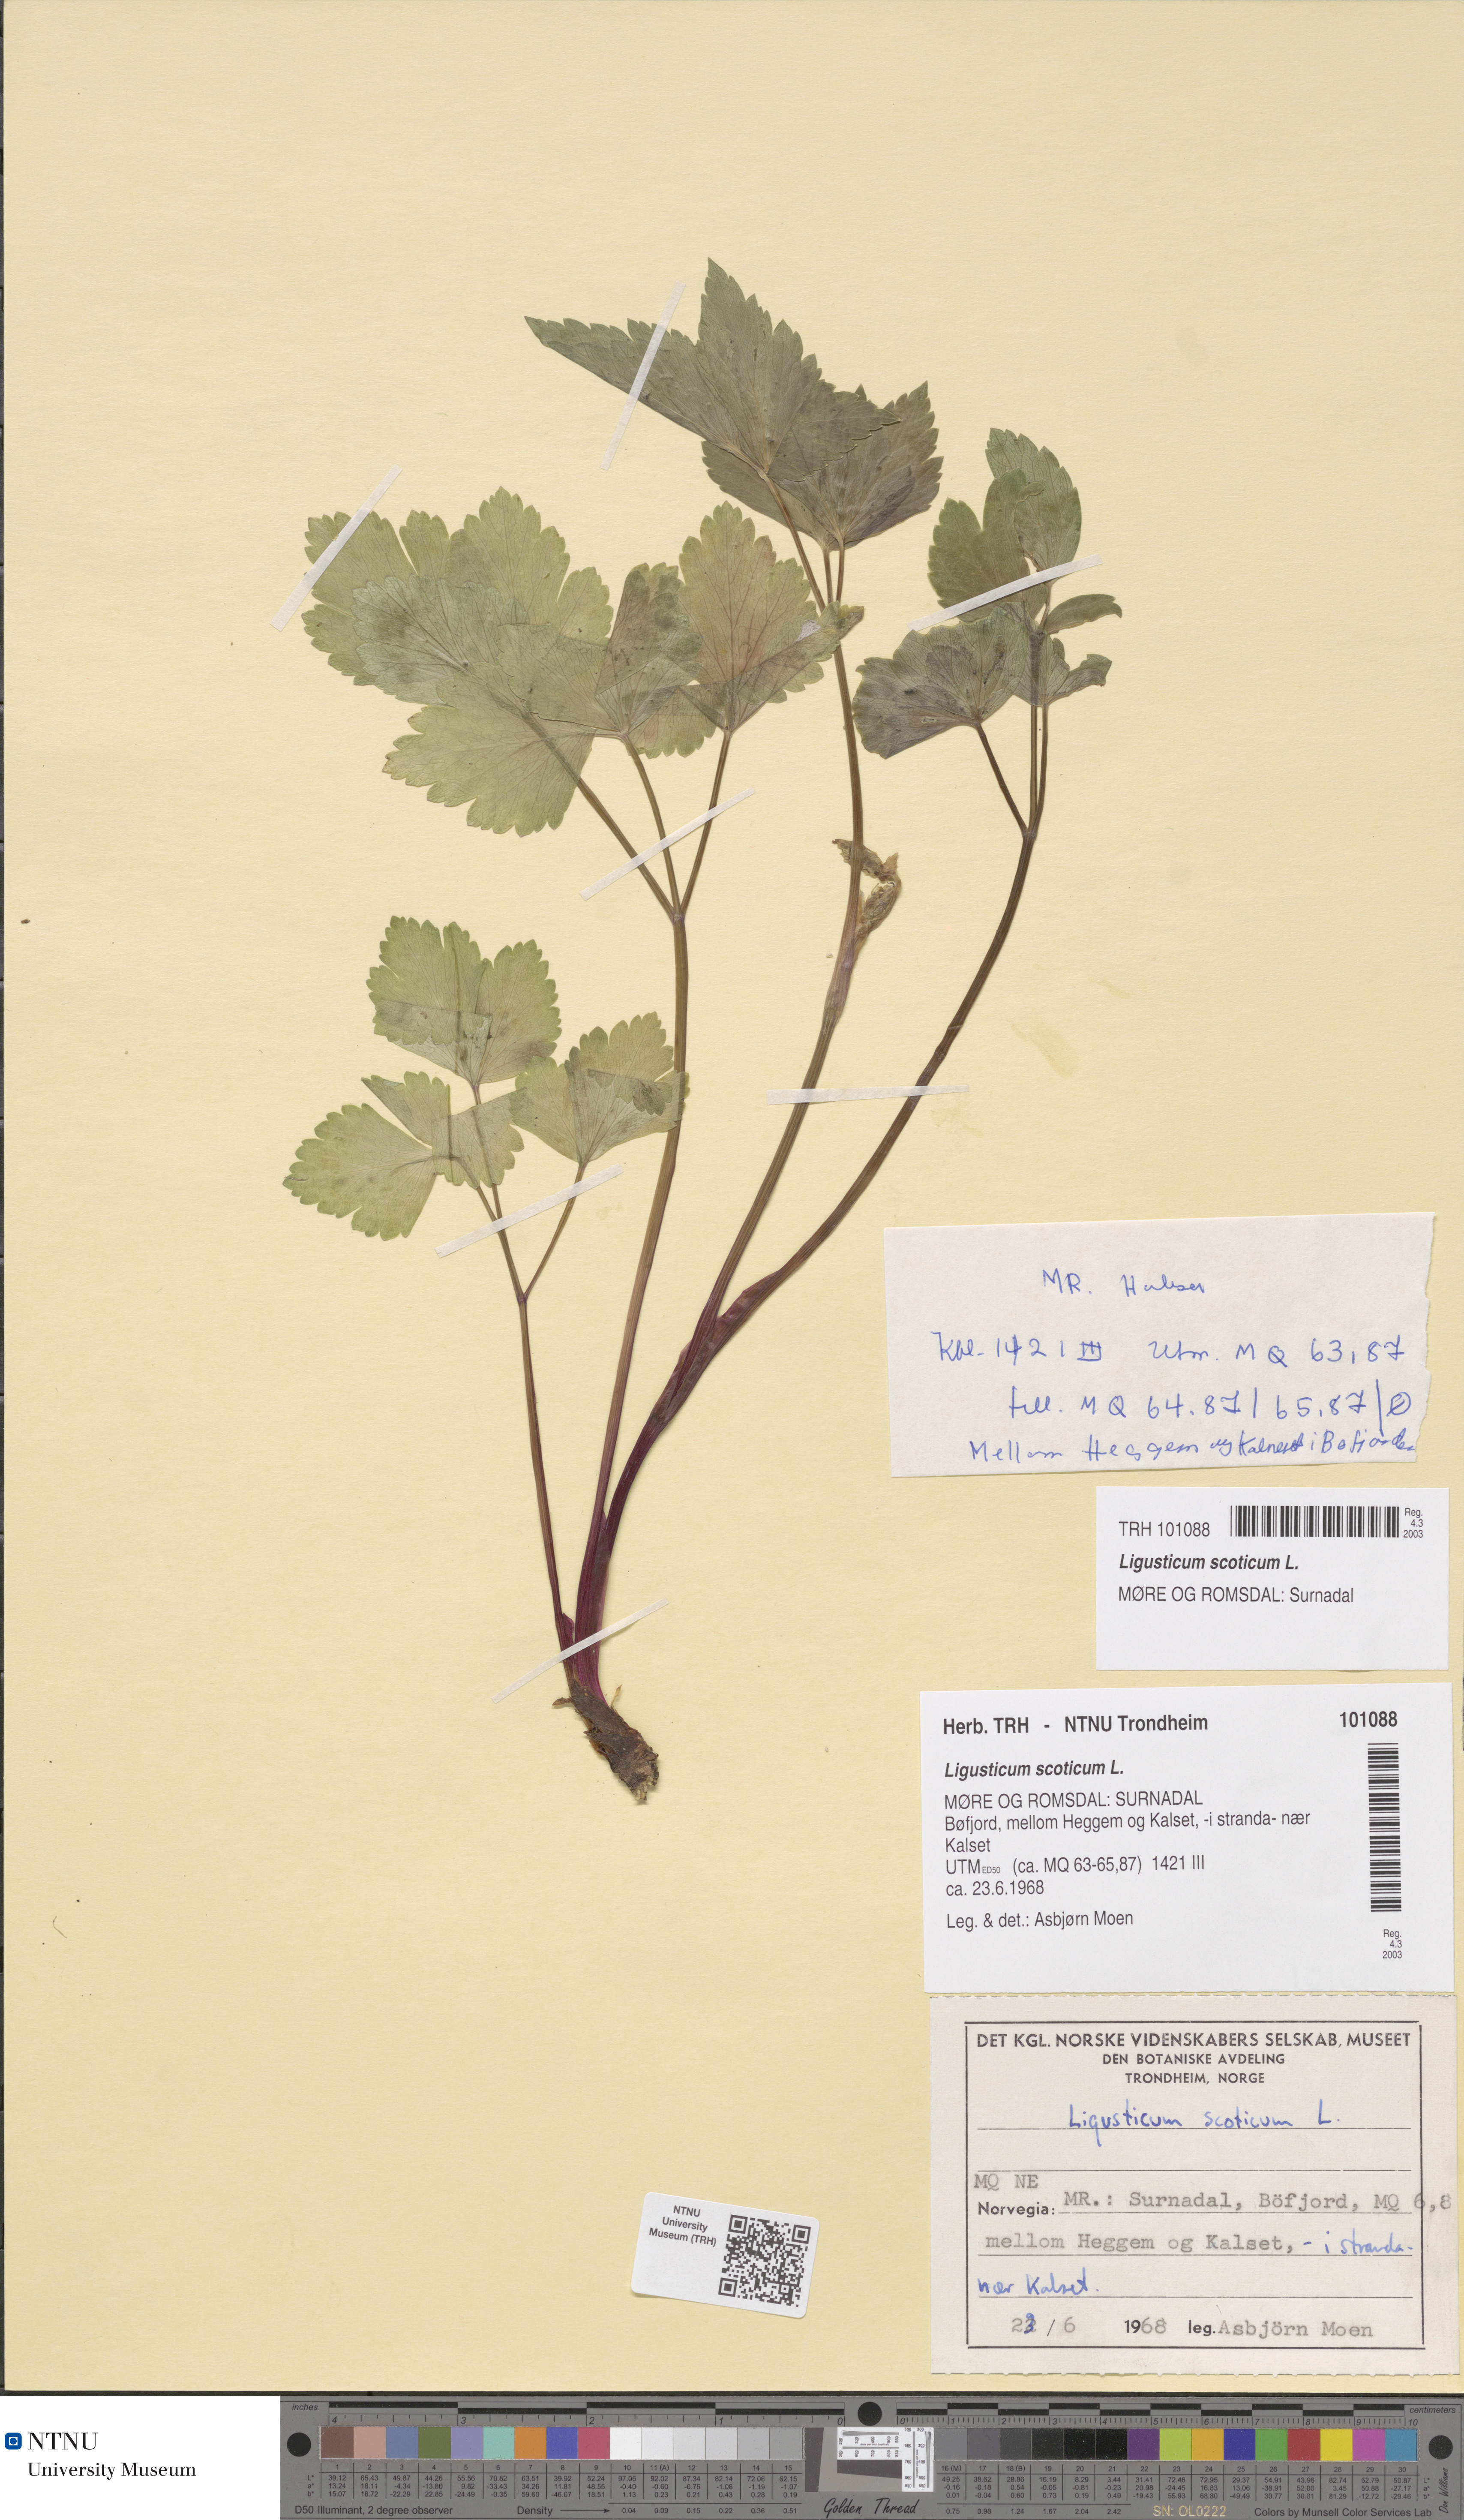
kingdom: Plantae
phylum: Tracheophyta
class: Magnoliopsida
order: Apiales
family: Apiaceae
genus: Ligusticum
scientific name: Ligusticum scothicum
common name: Beach lovage
